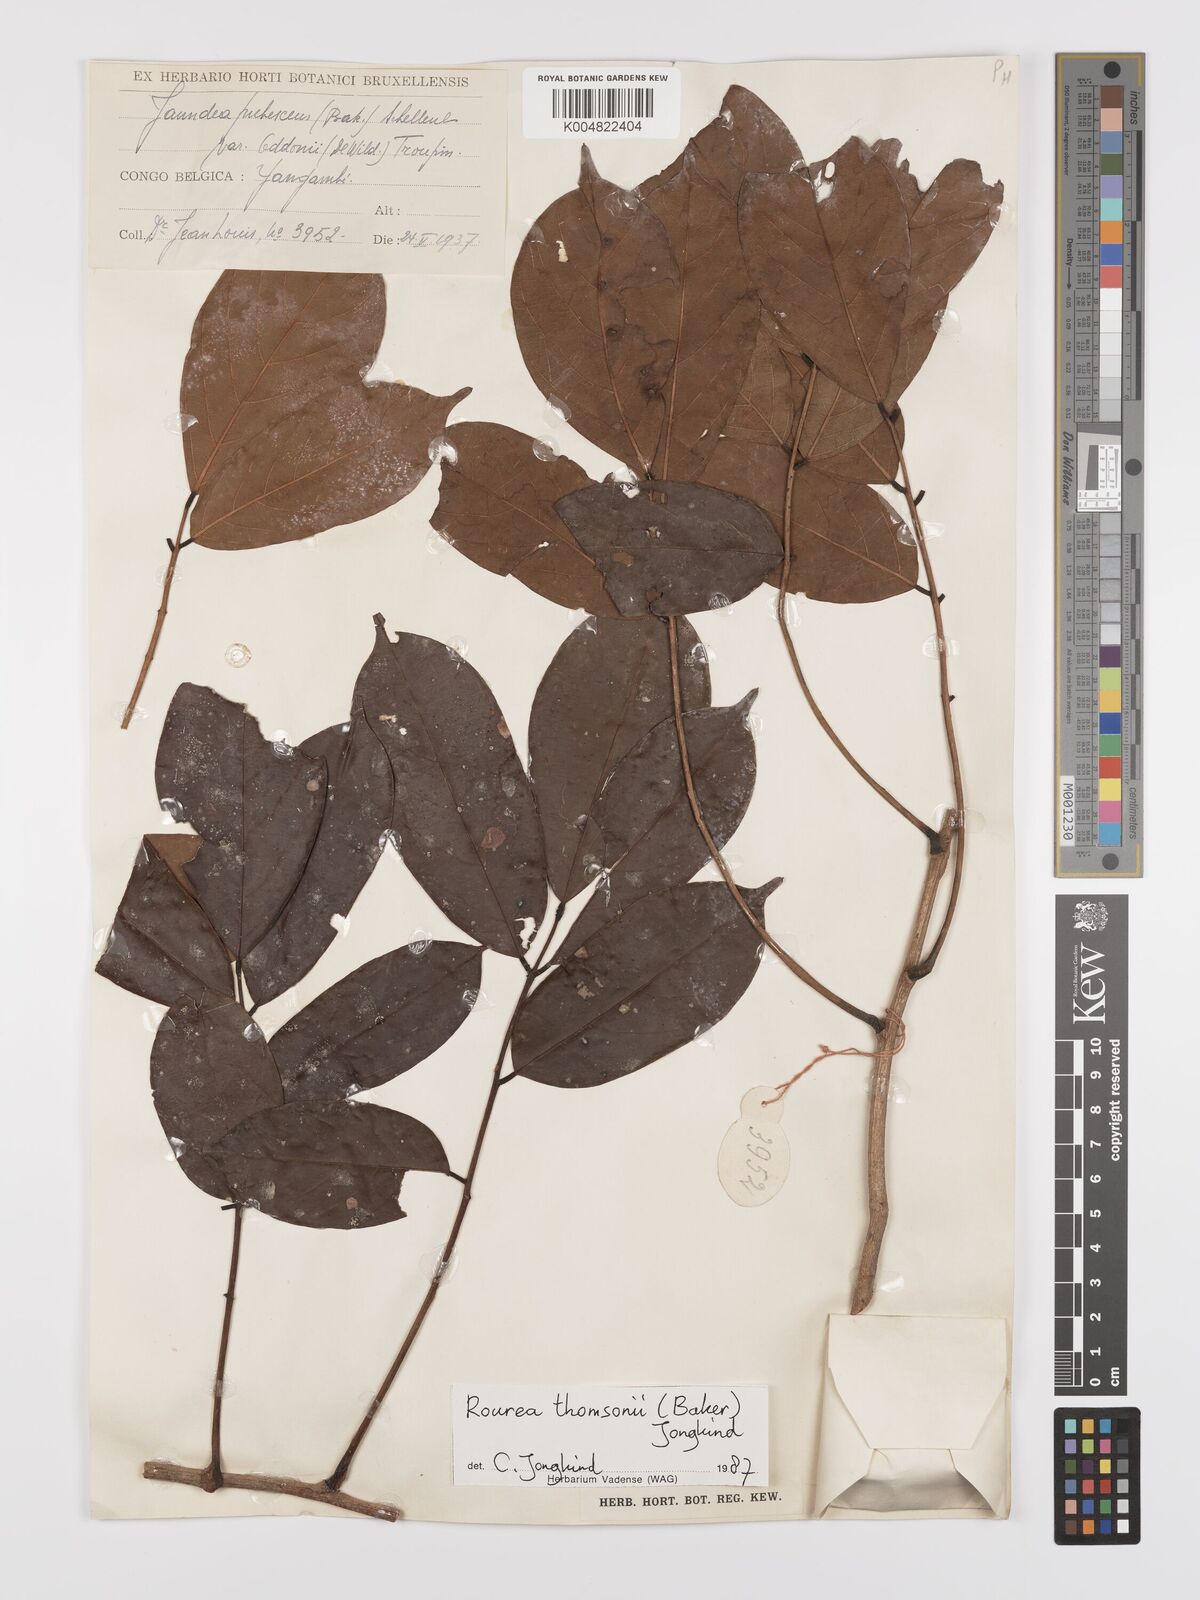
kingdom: Plantae
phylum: Tracheophyta
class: Magnoliopsida
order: Oxalidales
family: Connaraceae
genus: Rourea
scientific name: Rourea pubescens
